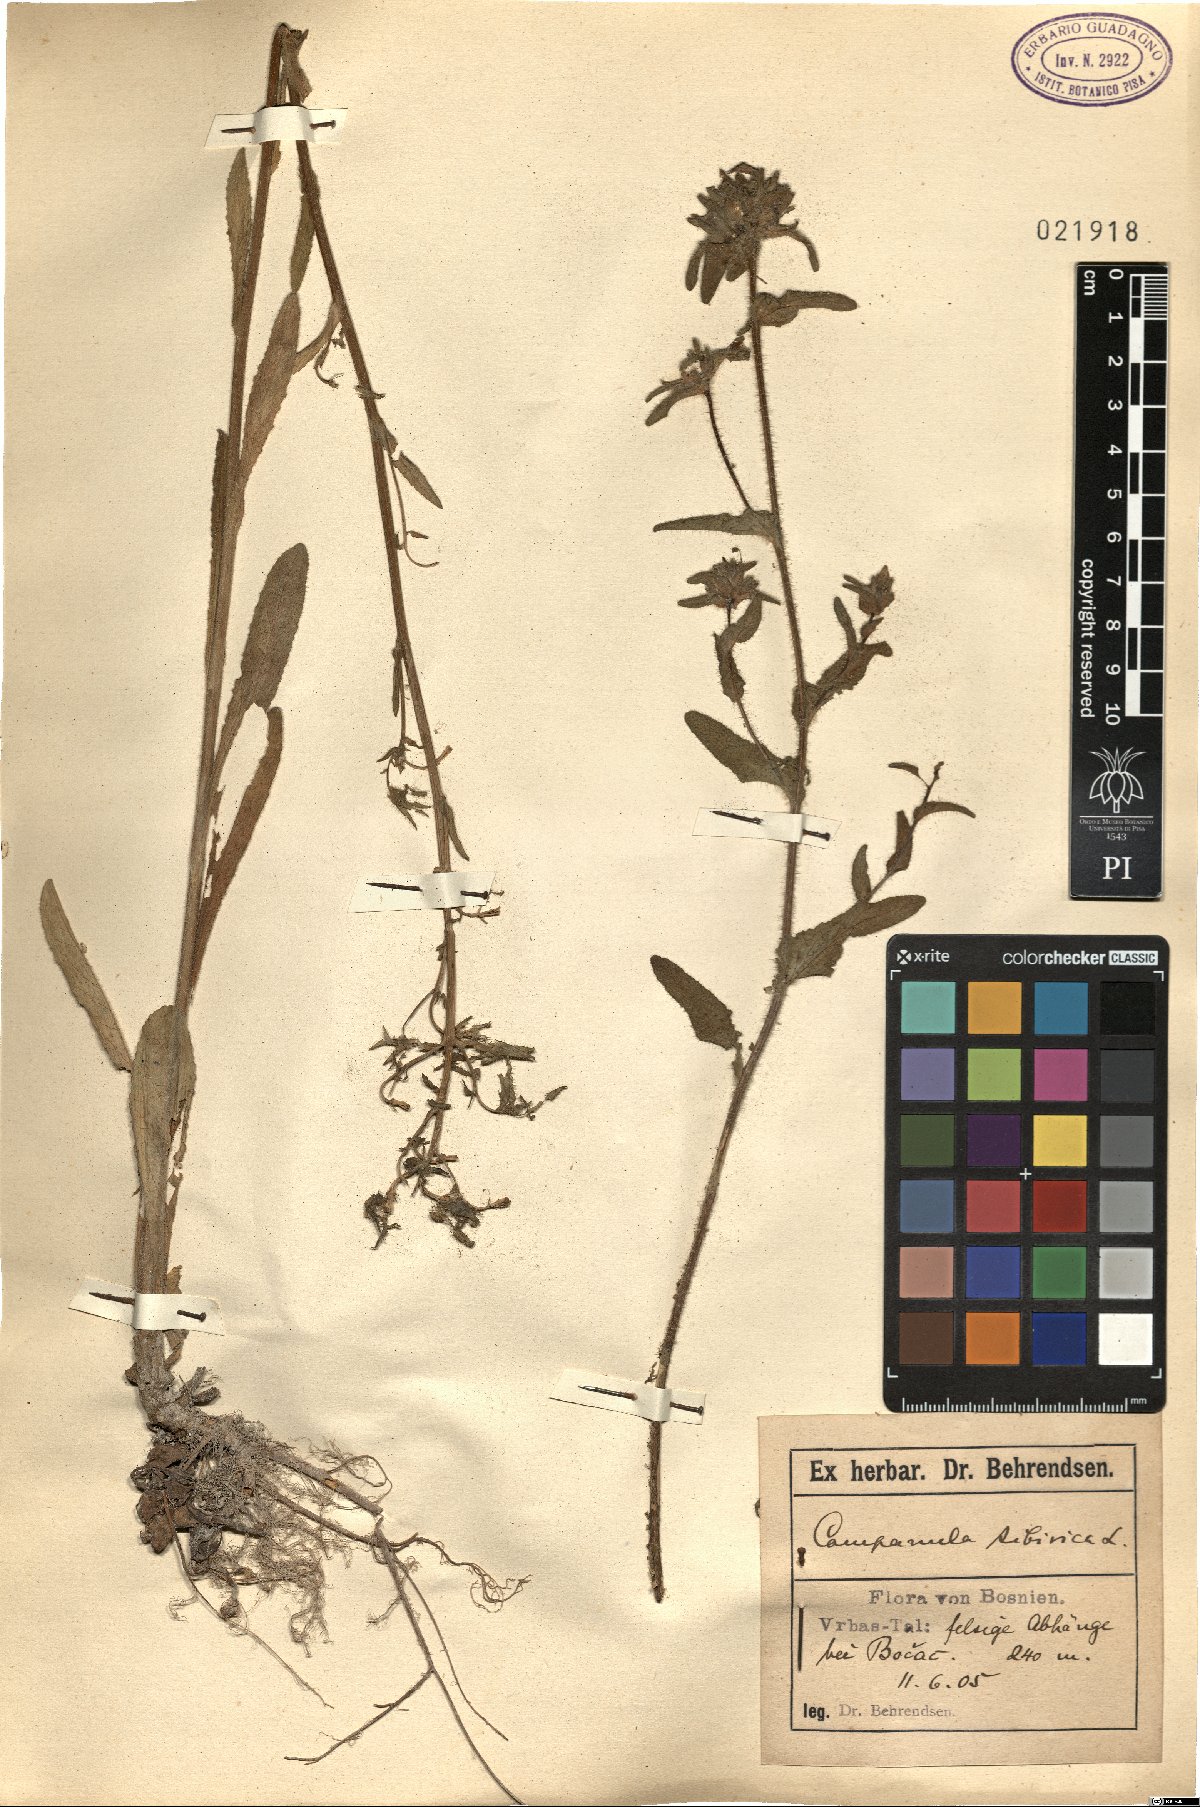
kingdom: Plantae
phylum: Tracheophyta
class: Magnoliopsida
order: Asterales
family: Campanulaceae
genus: Campanula
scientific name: Campanula sibirica
